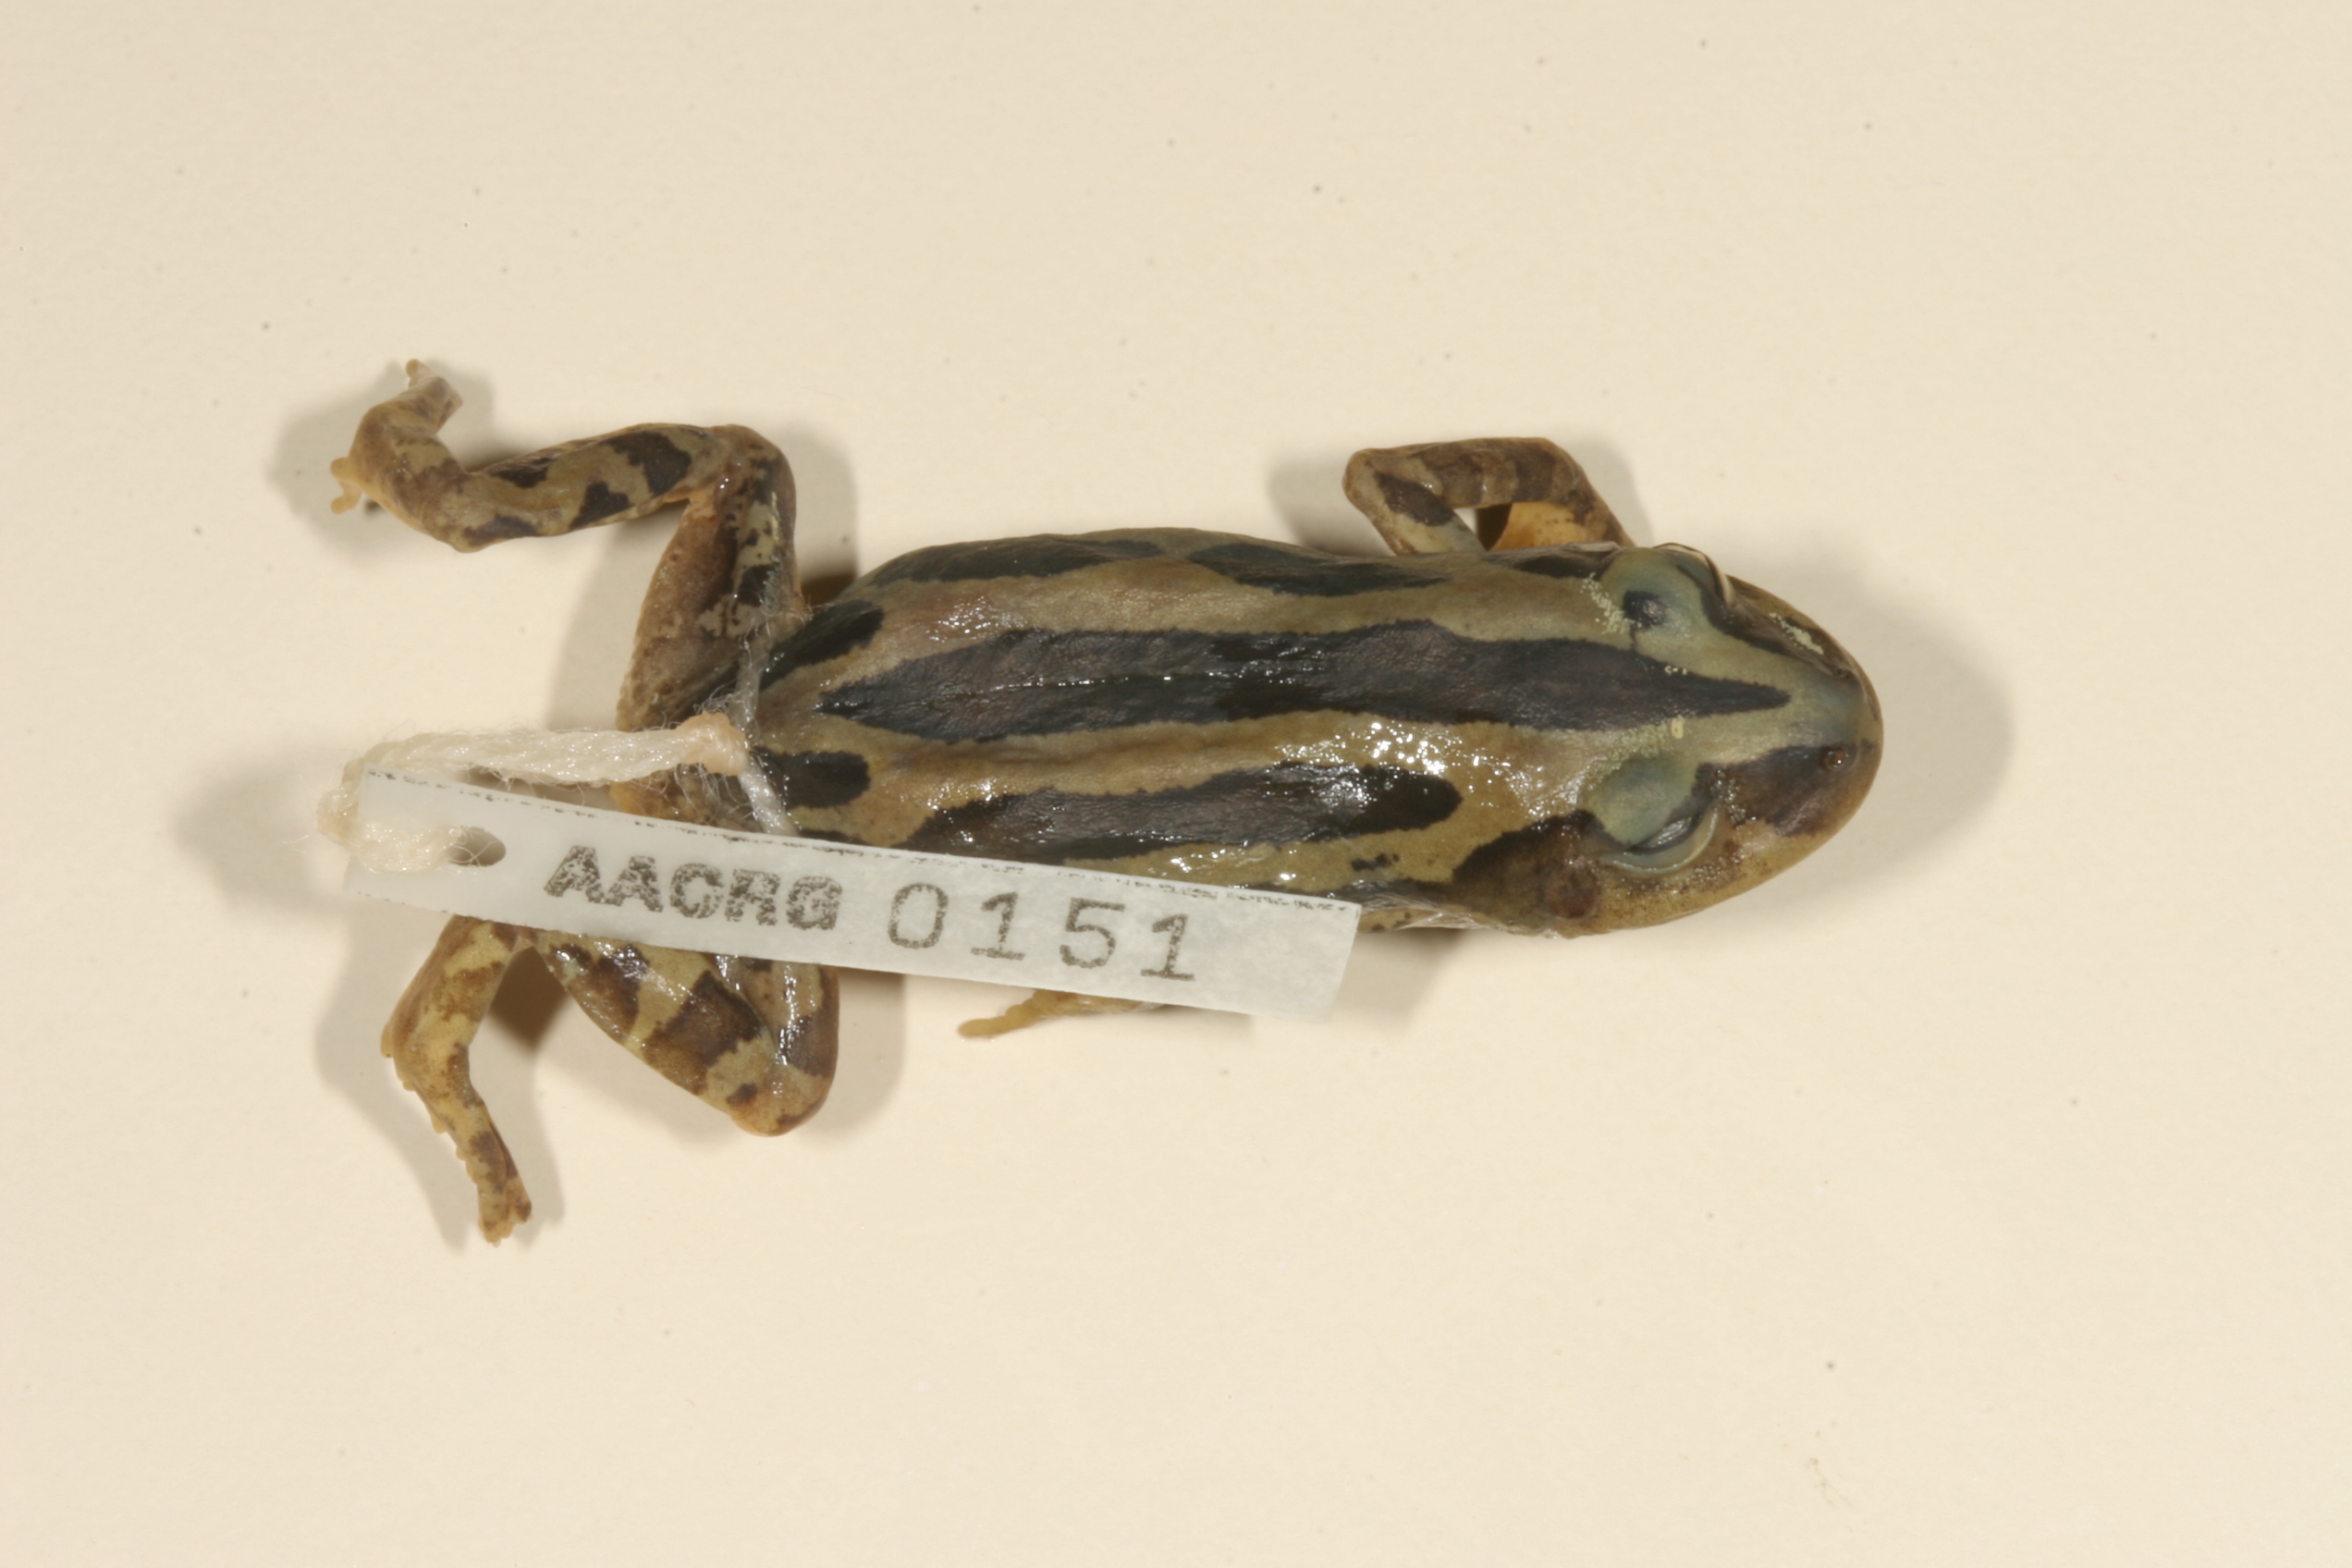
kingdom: Animalia
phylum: Chordata
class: Amphibia
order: Anura
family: Hyperoliidae
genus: Kassina
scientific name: Kassina senegalensis
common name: Senegal land frog
